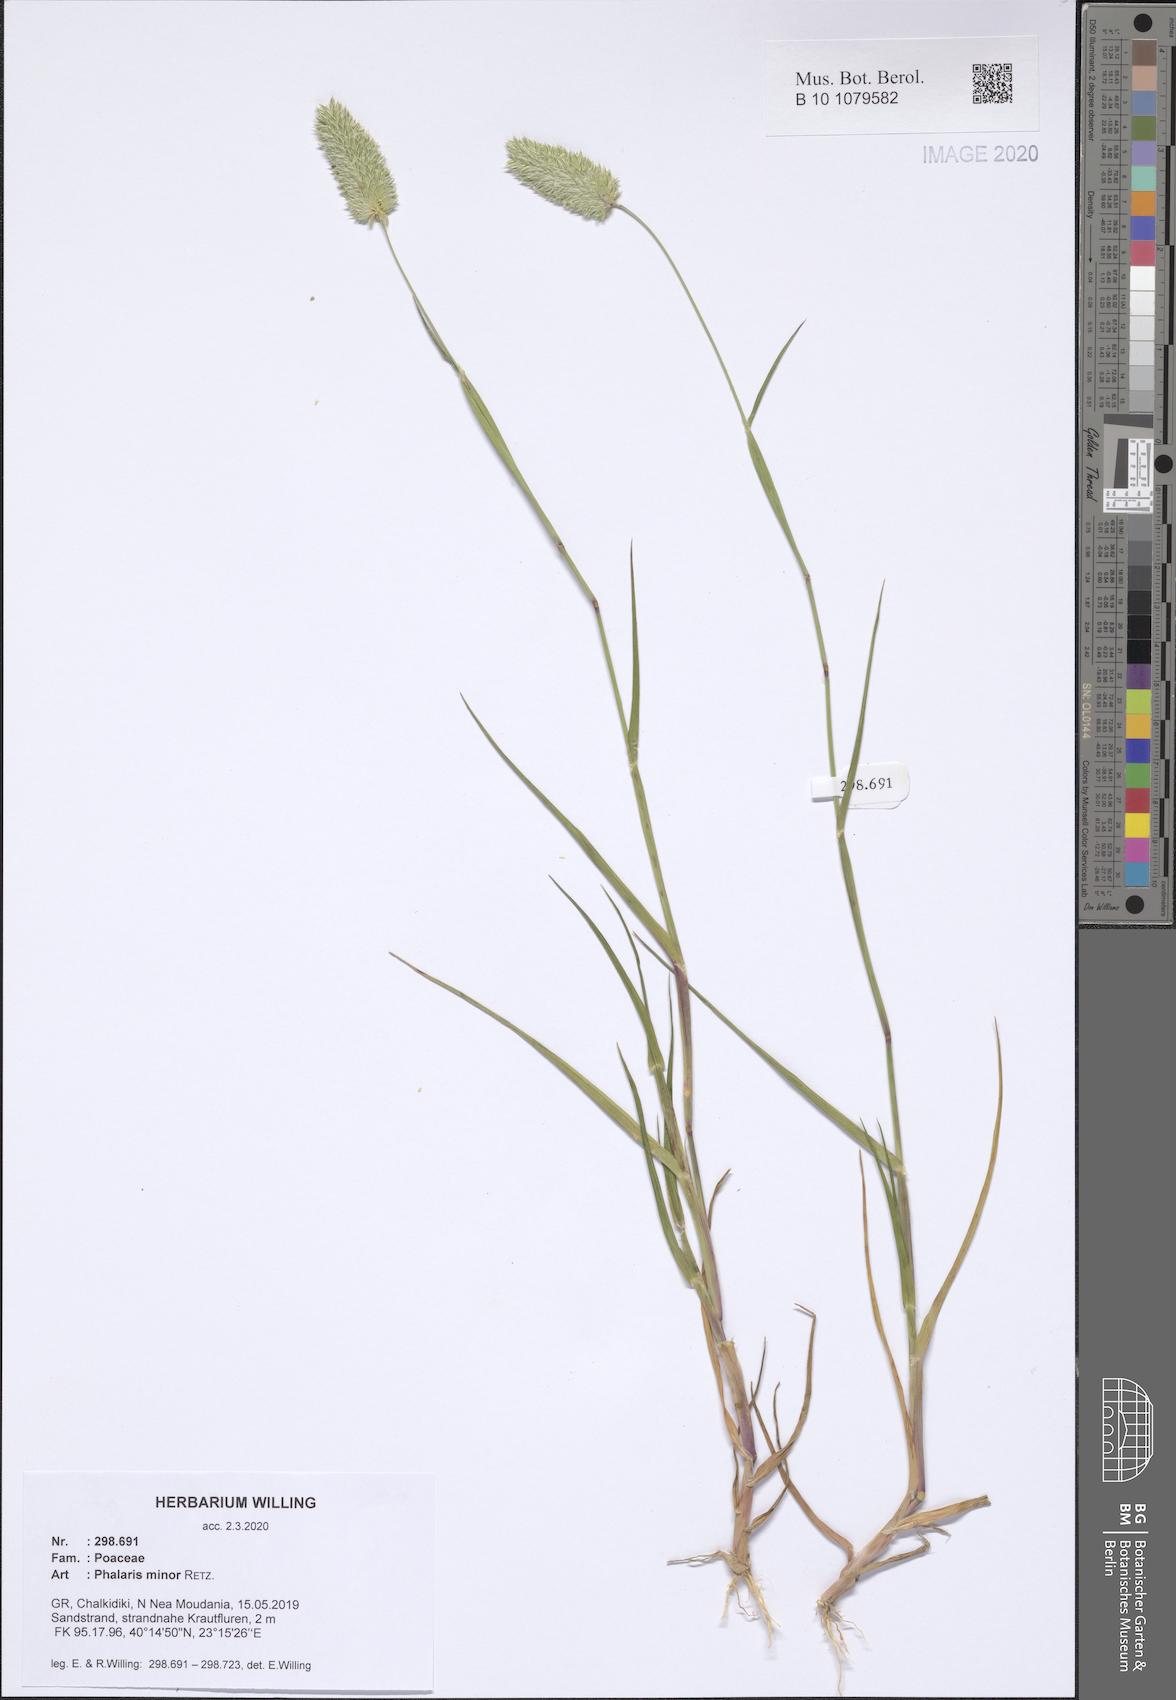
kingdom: Plantae
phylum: Tracheophyta
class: Liliopsida
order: Poales
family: Poaceae
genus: Phalaris
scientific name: Phalaris minor
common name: Littleseed canarygrass
